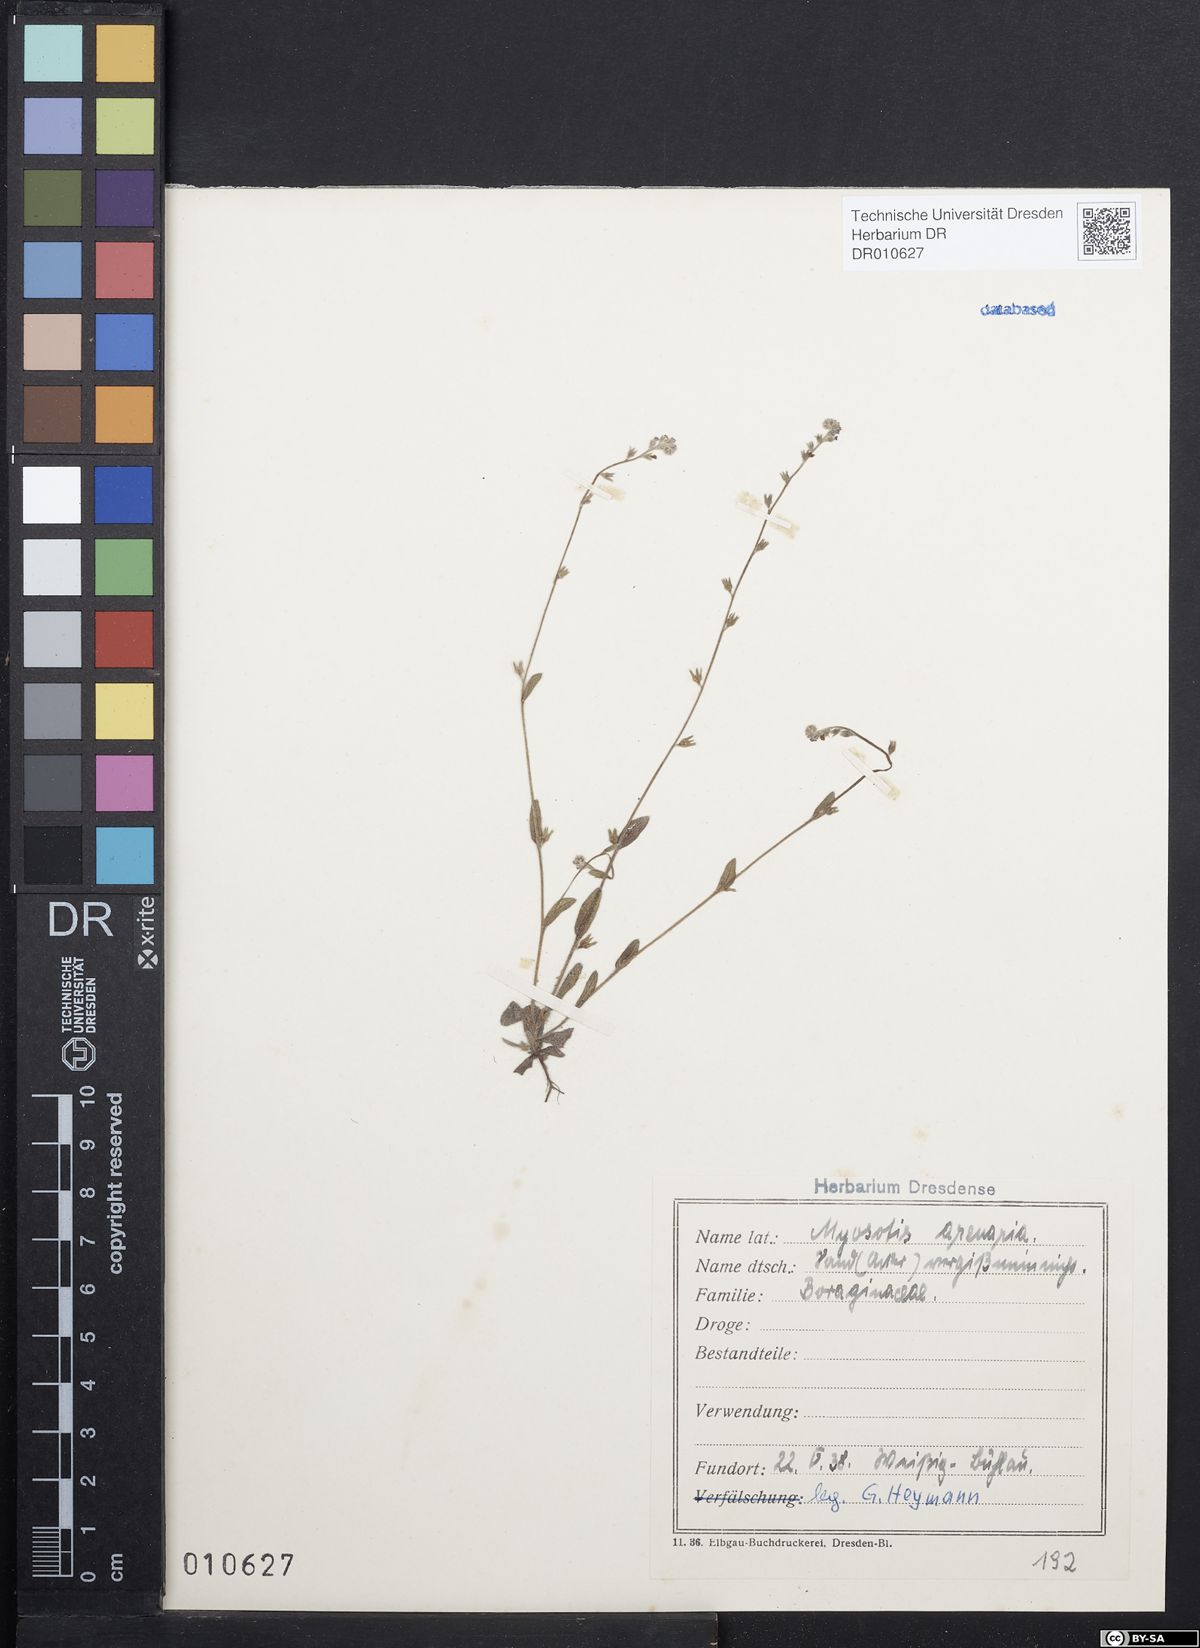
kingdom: Plantae
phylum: Tracheophyta
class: Magnoliopsida
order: Boraginales
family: Boraginaceae
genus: Myosotis
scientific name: Myosotis stricta
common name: Strict forget-me-not
